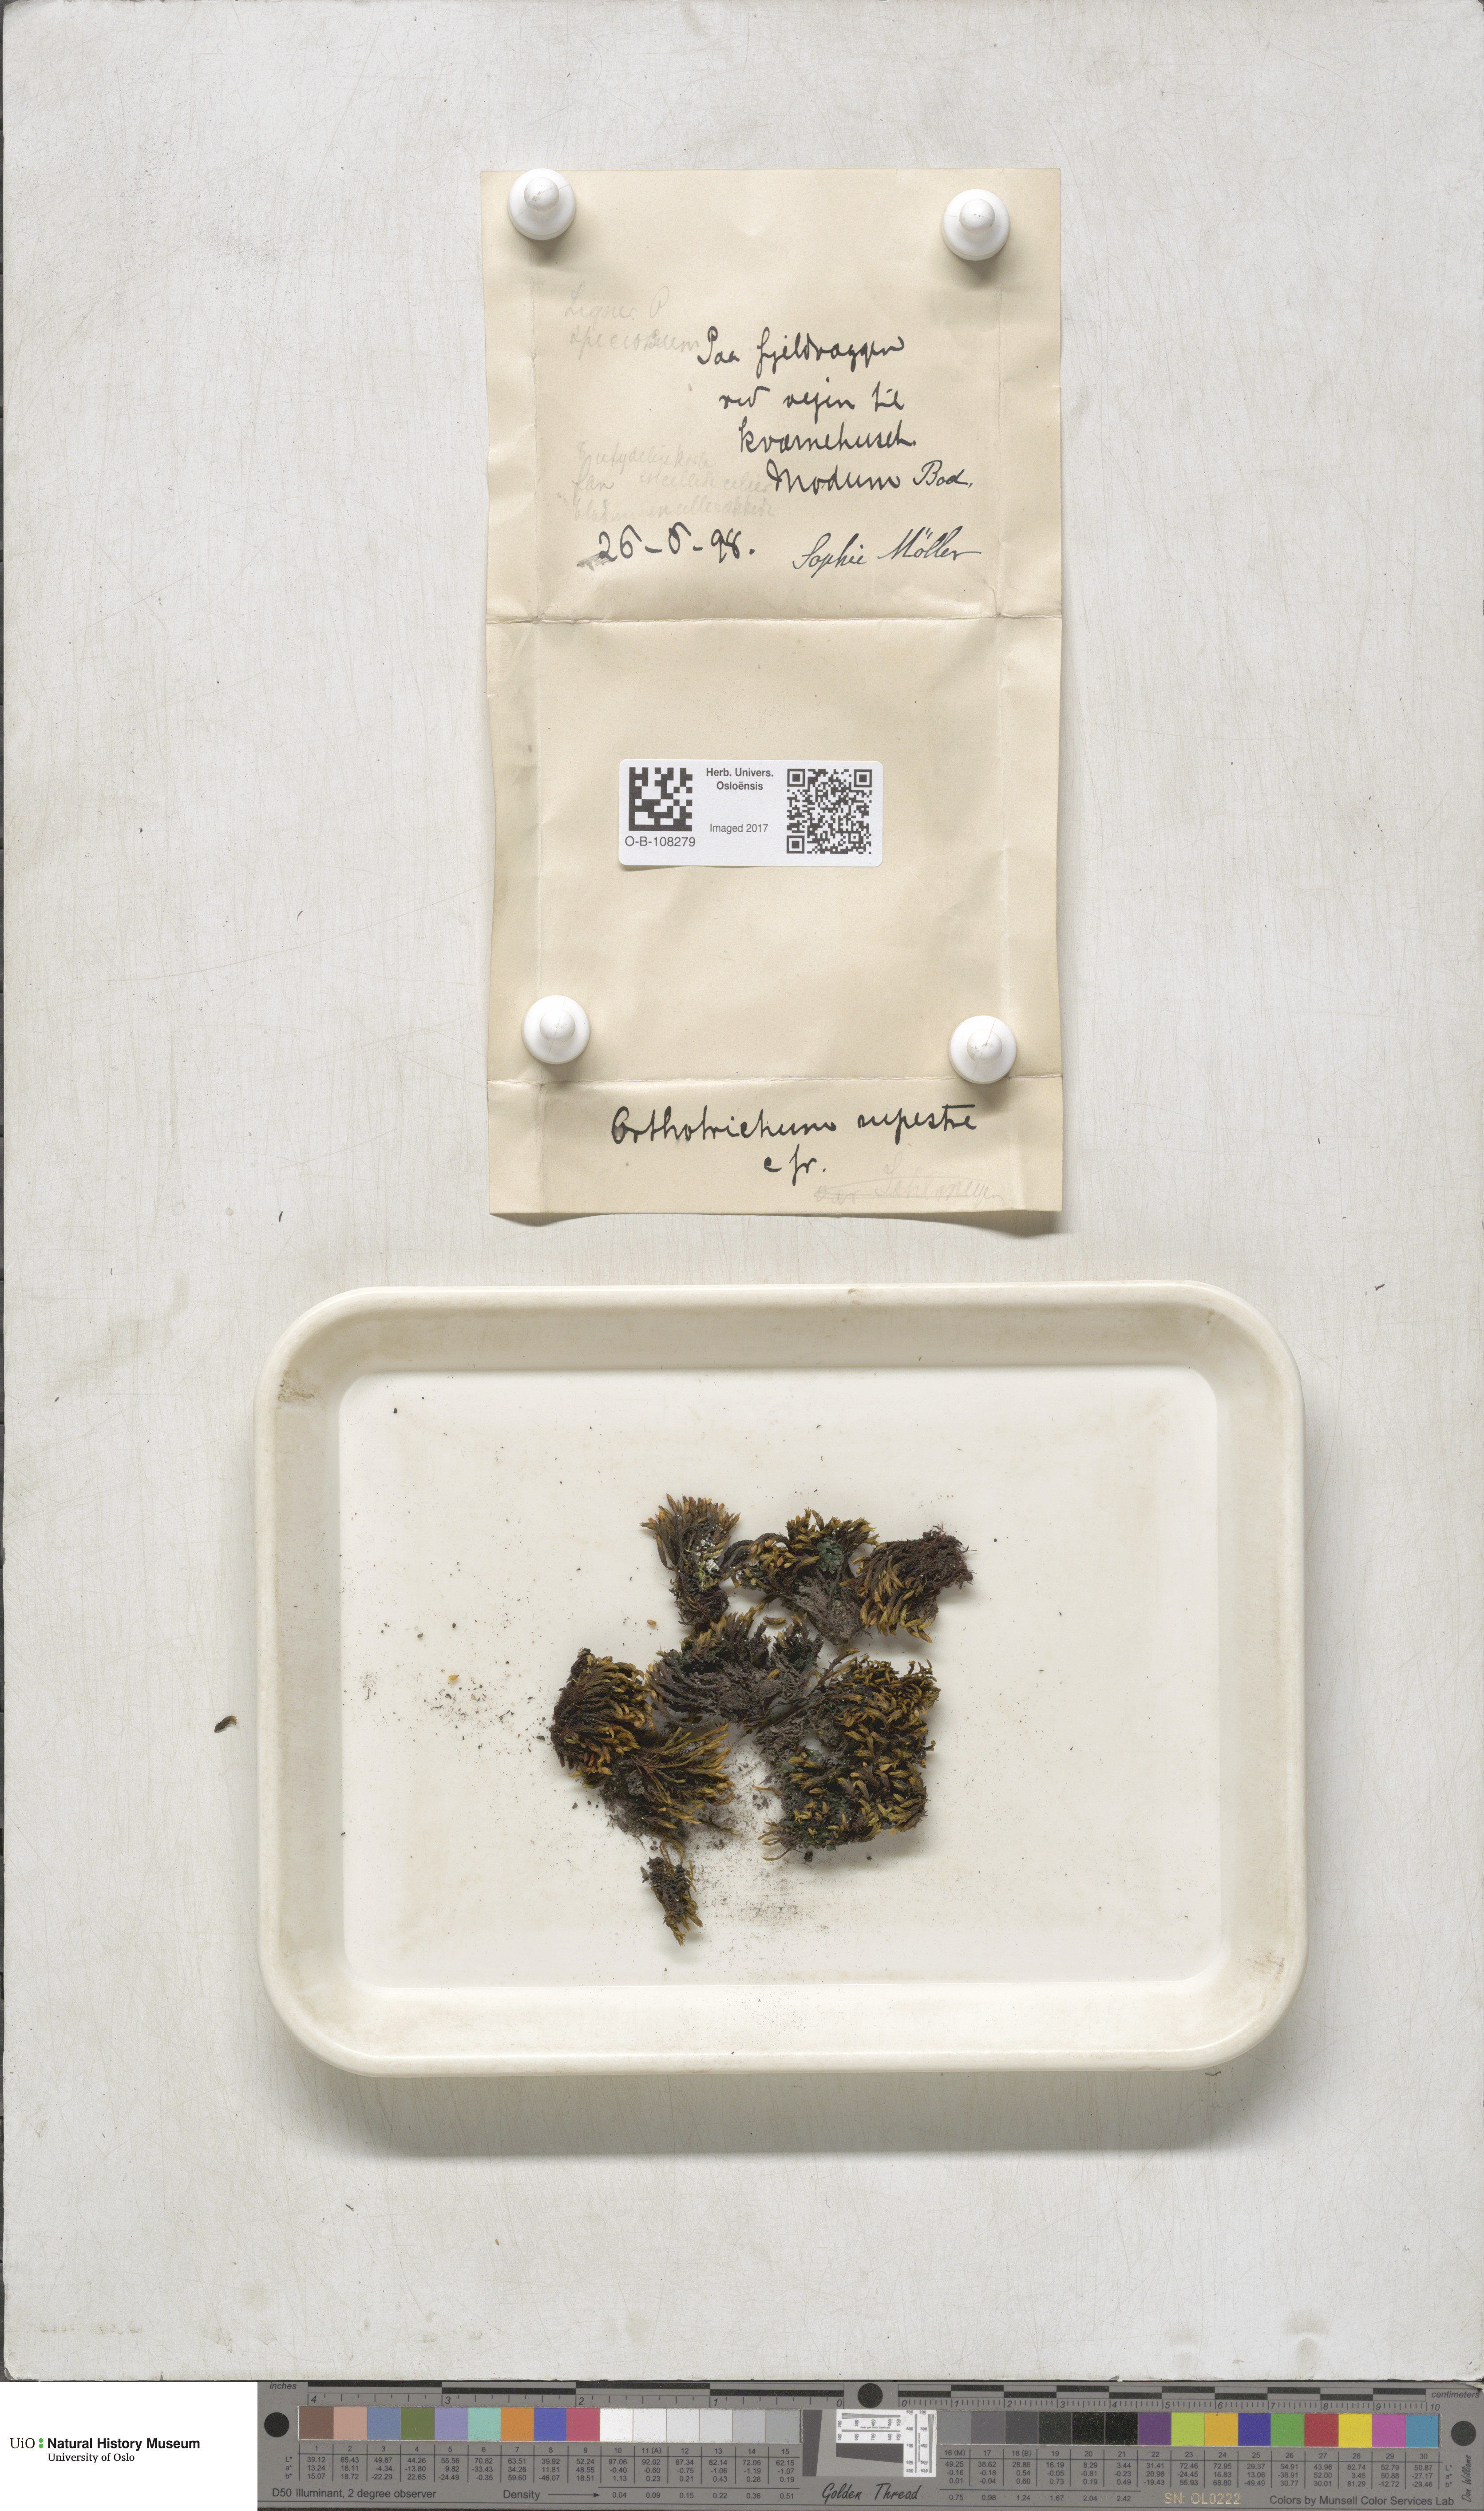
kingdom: Plantae
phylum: Bryophyta
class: Bryopsida
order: Orthotrichales
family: Orthotrichaceae
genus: Lewinskya
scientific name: Lewinskya rupestris
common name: Rock bristle-moss
